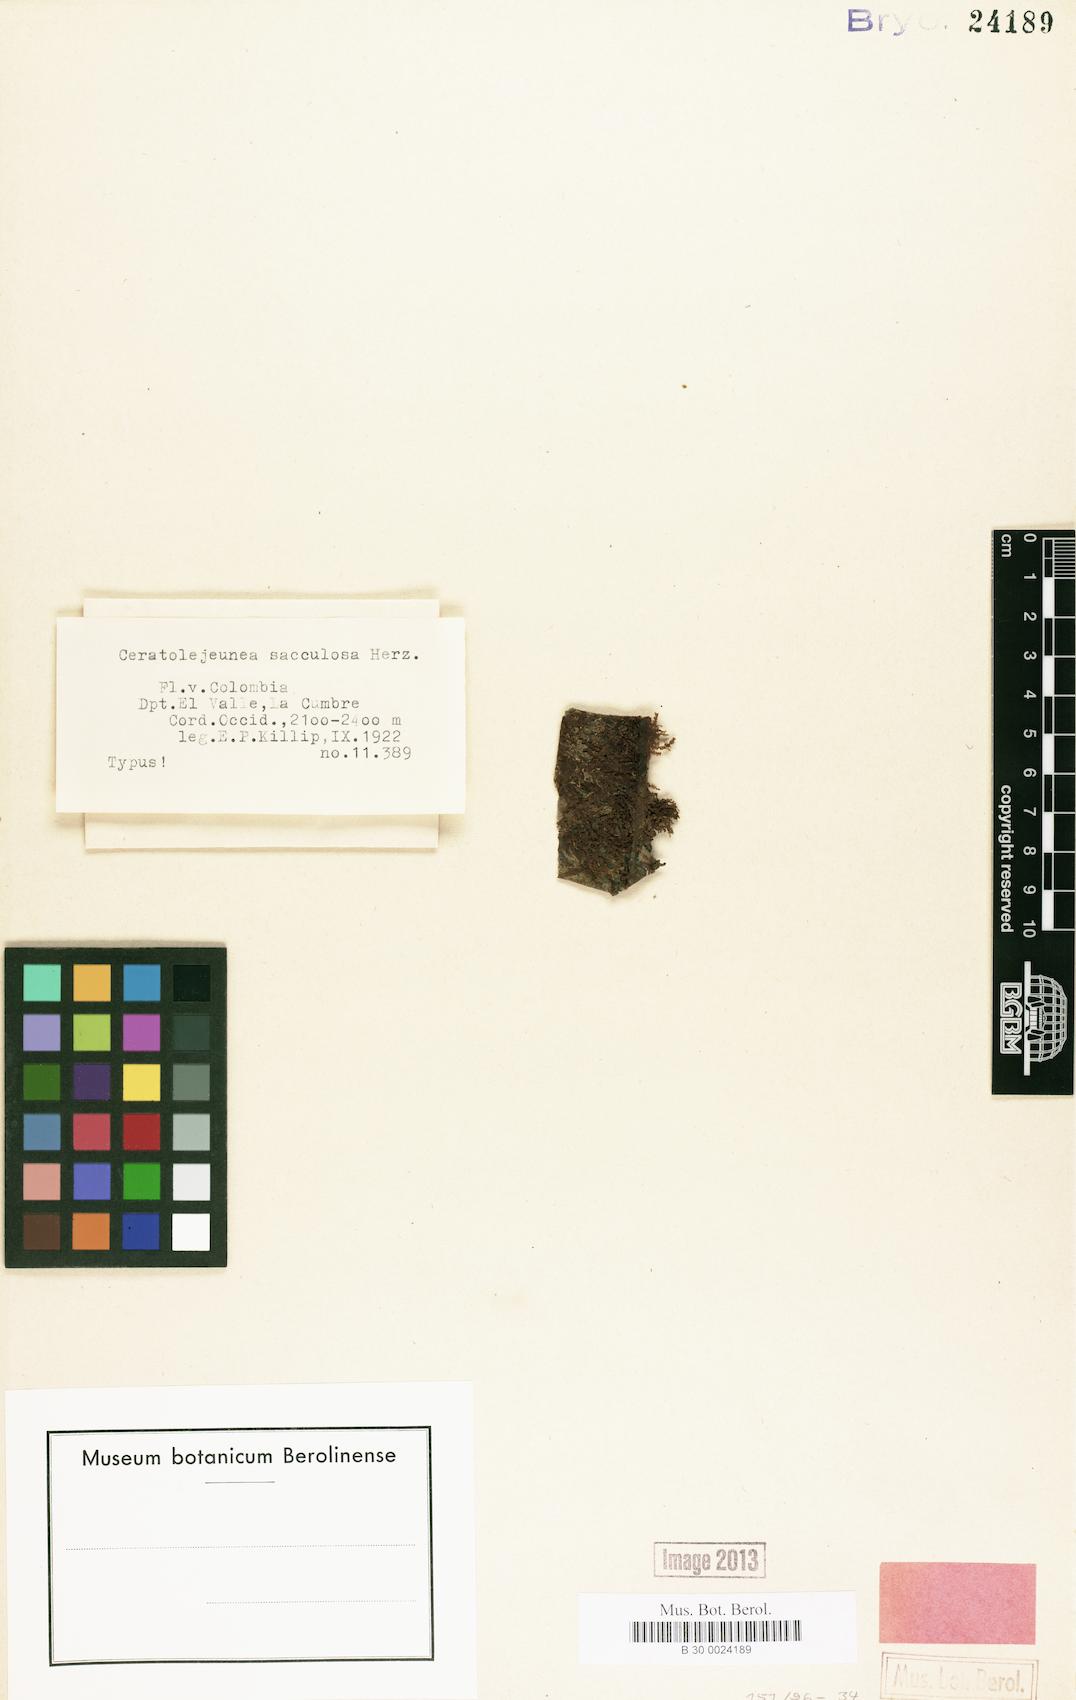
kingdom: Plantae
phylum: Marchantiophyta
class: Jungermanniopsida
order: Porellales
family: Lejeuneaceae
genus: Ceratolejeunea
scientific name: Ceratolejeunea filaria
